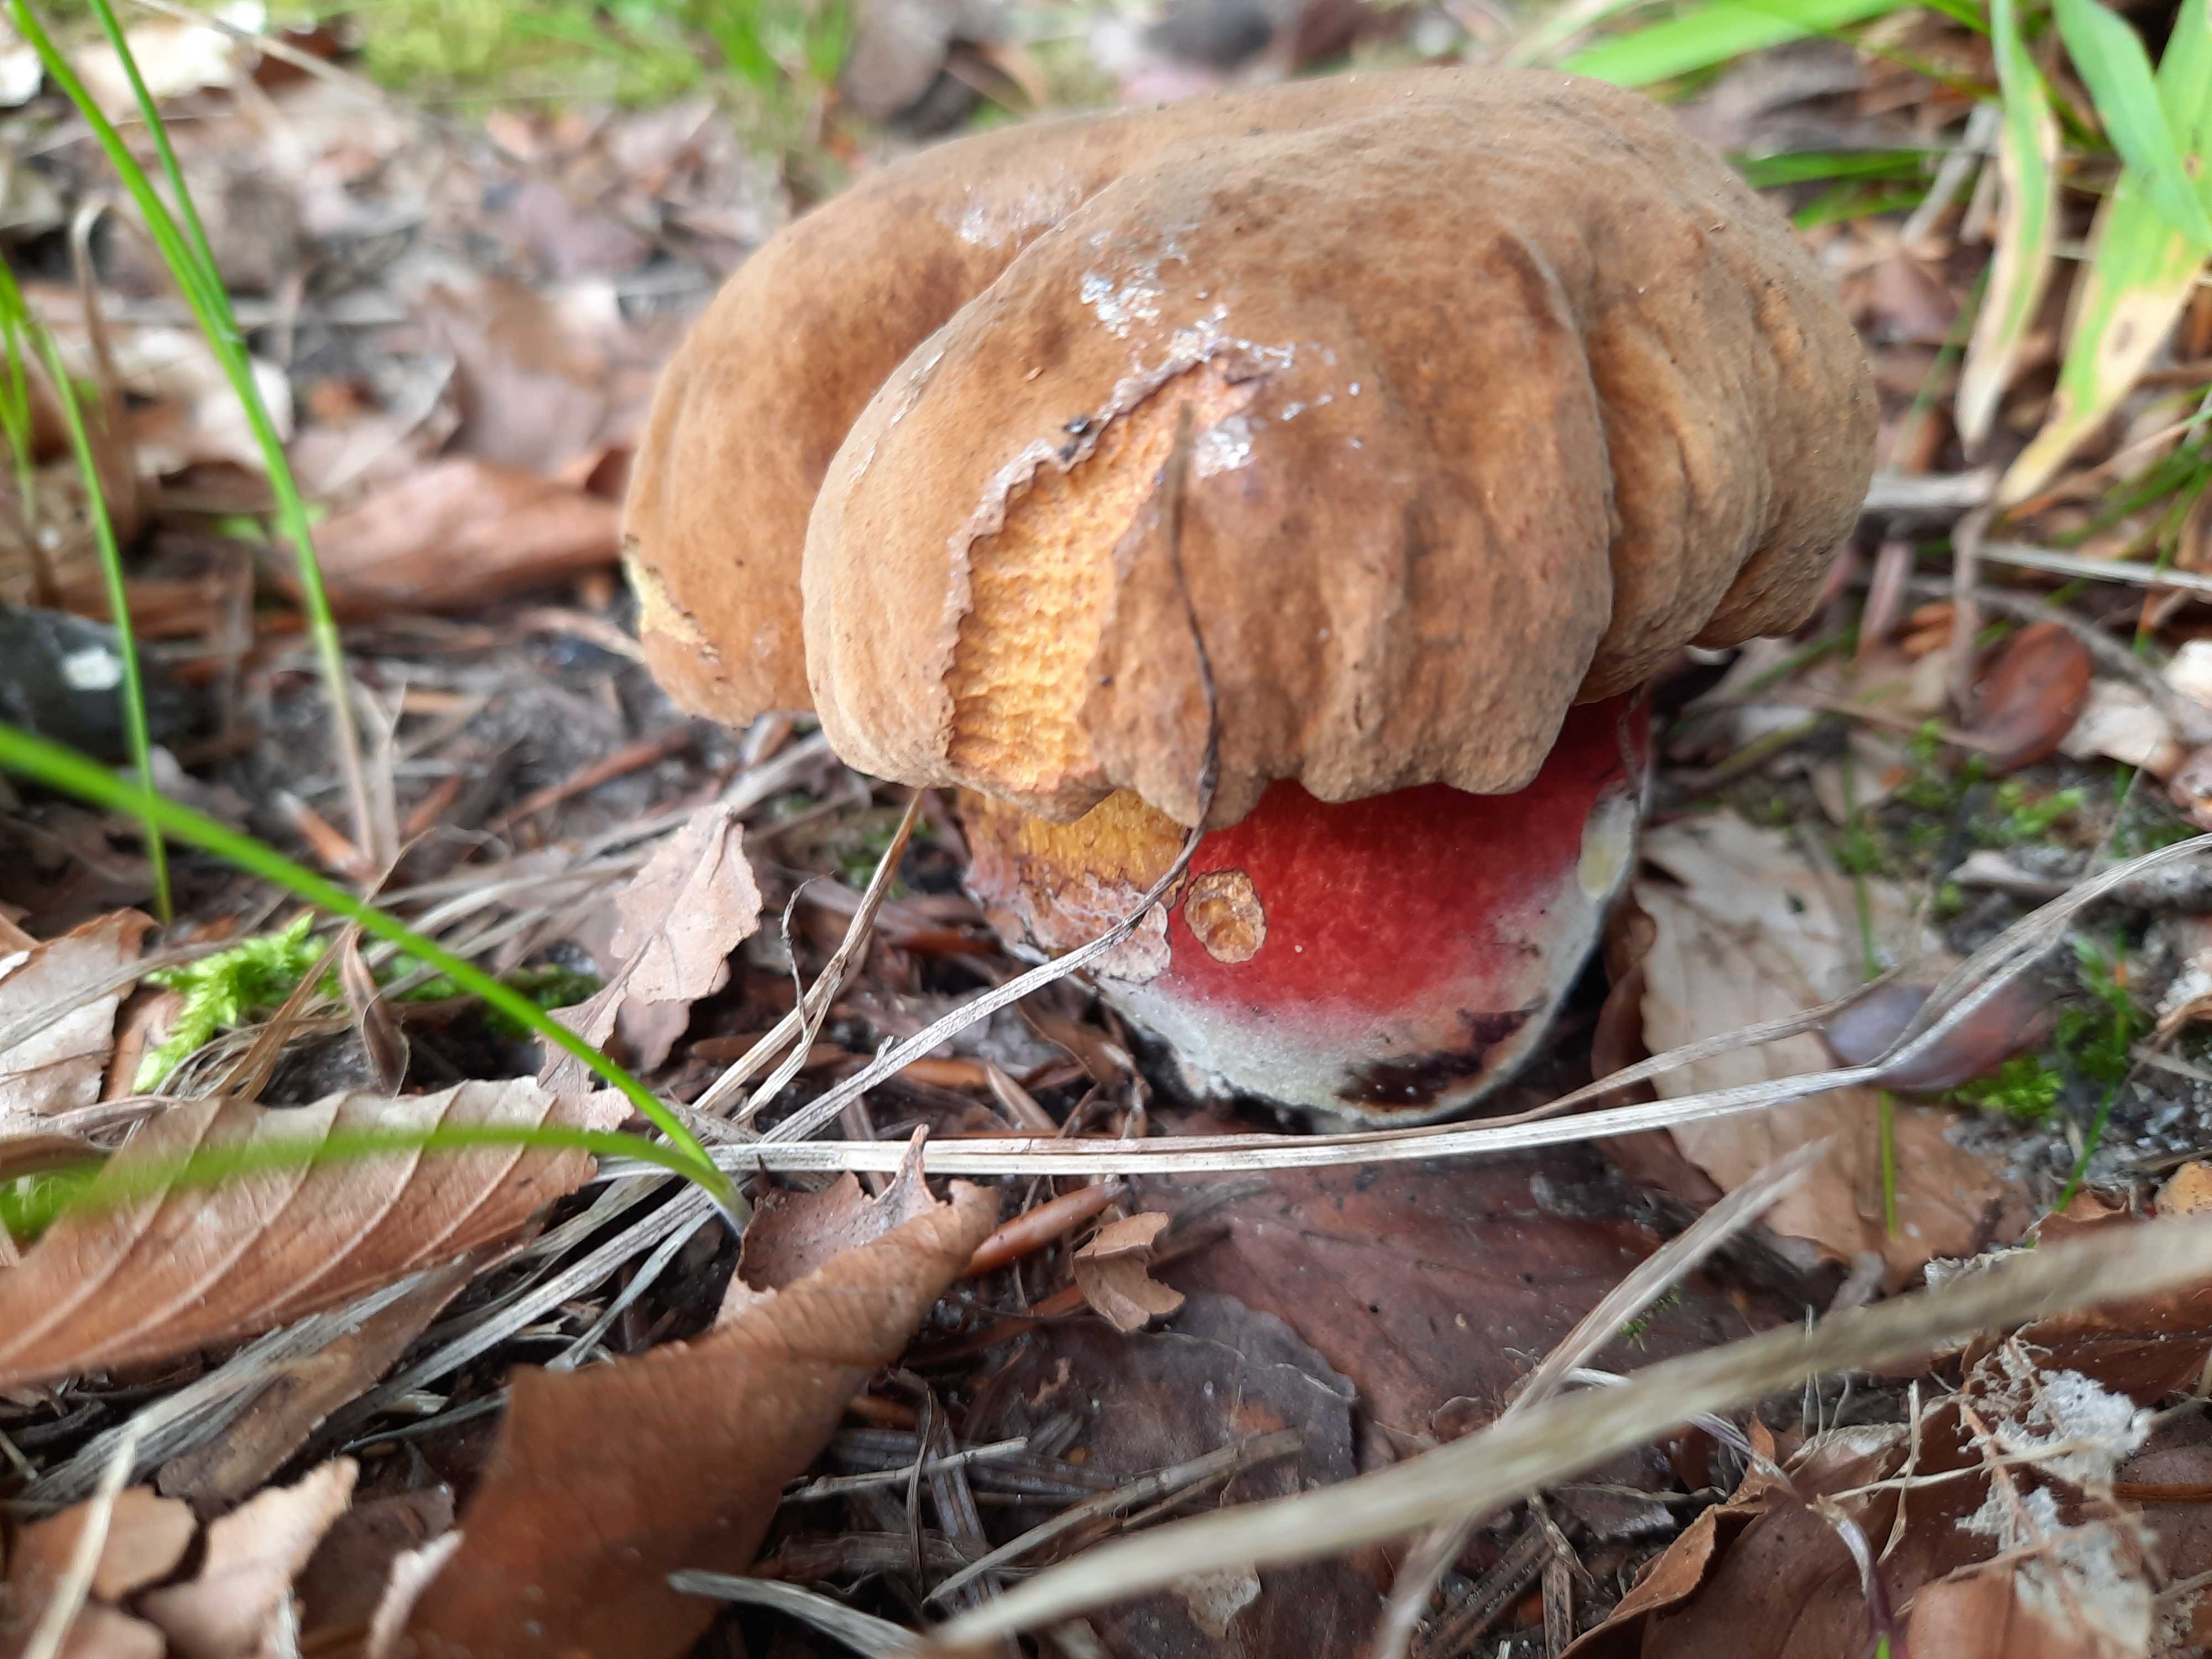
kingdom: Fungi
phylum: Basidiomycota
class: Agaricomycetes
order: Boletales
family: Boletaceae
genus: Neoboletus
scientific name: Neoboletus erythropus
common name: punktstokket indigorørhat
